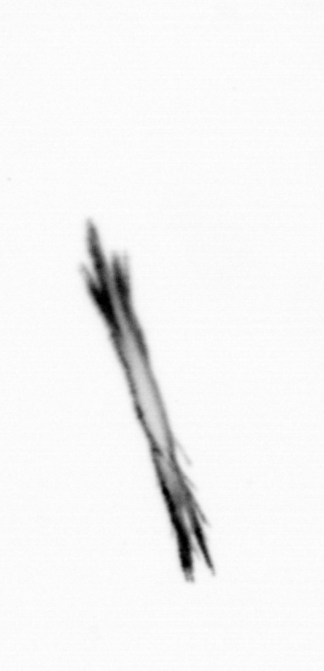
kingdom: Bacteria
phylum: Cyanobacteria
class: Cyanobacteriia
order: Cyanobacteriales
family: Microcoleaceae
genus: Trichodesmium
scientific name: Trichodesmium
